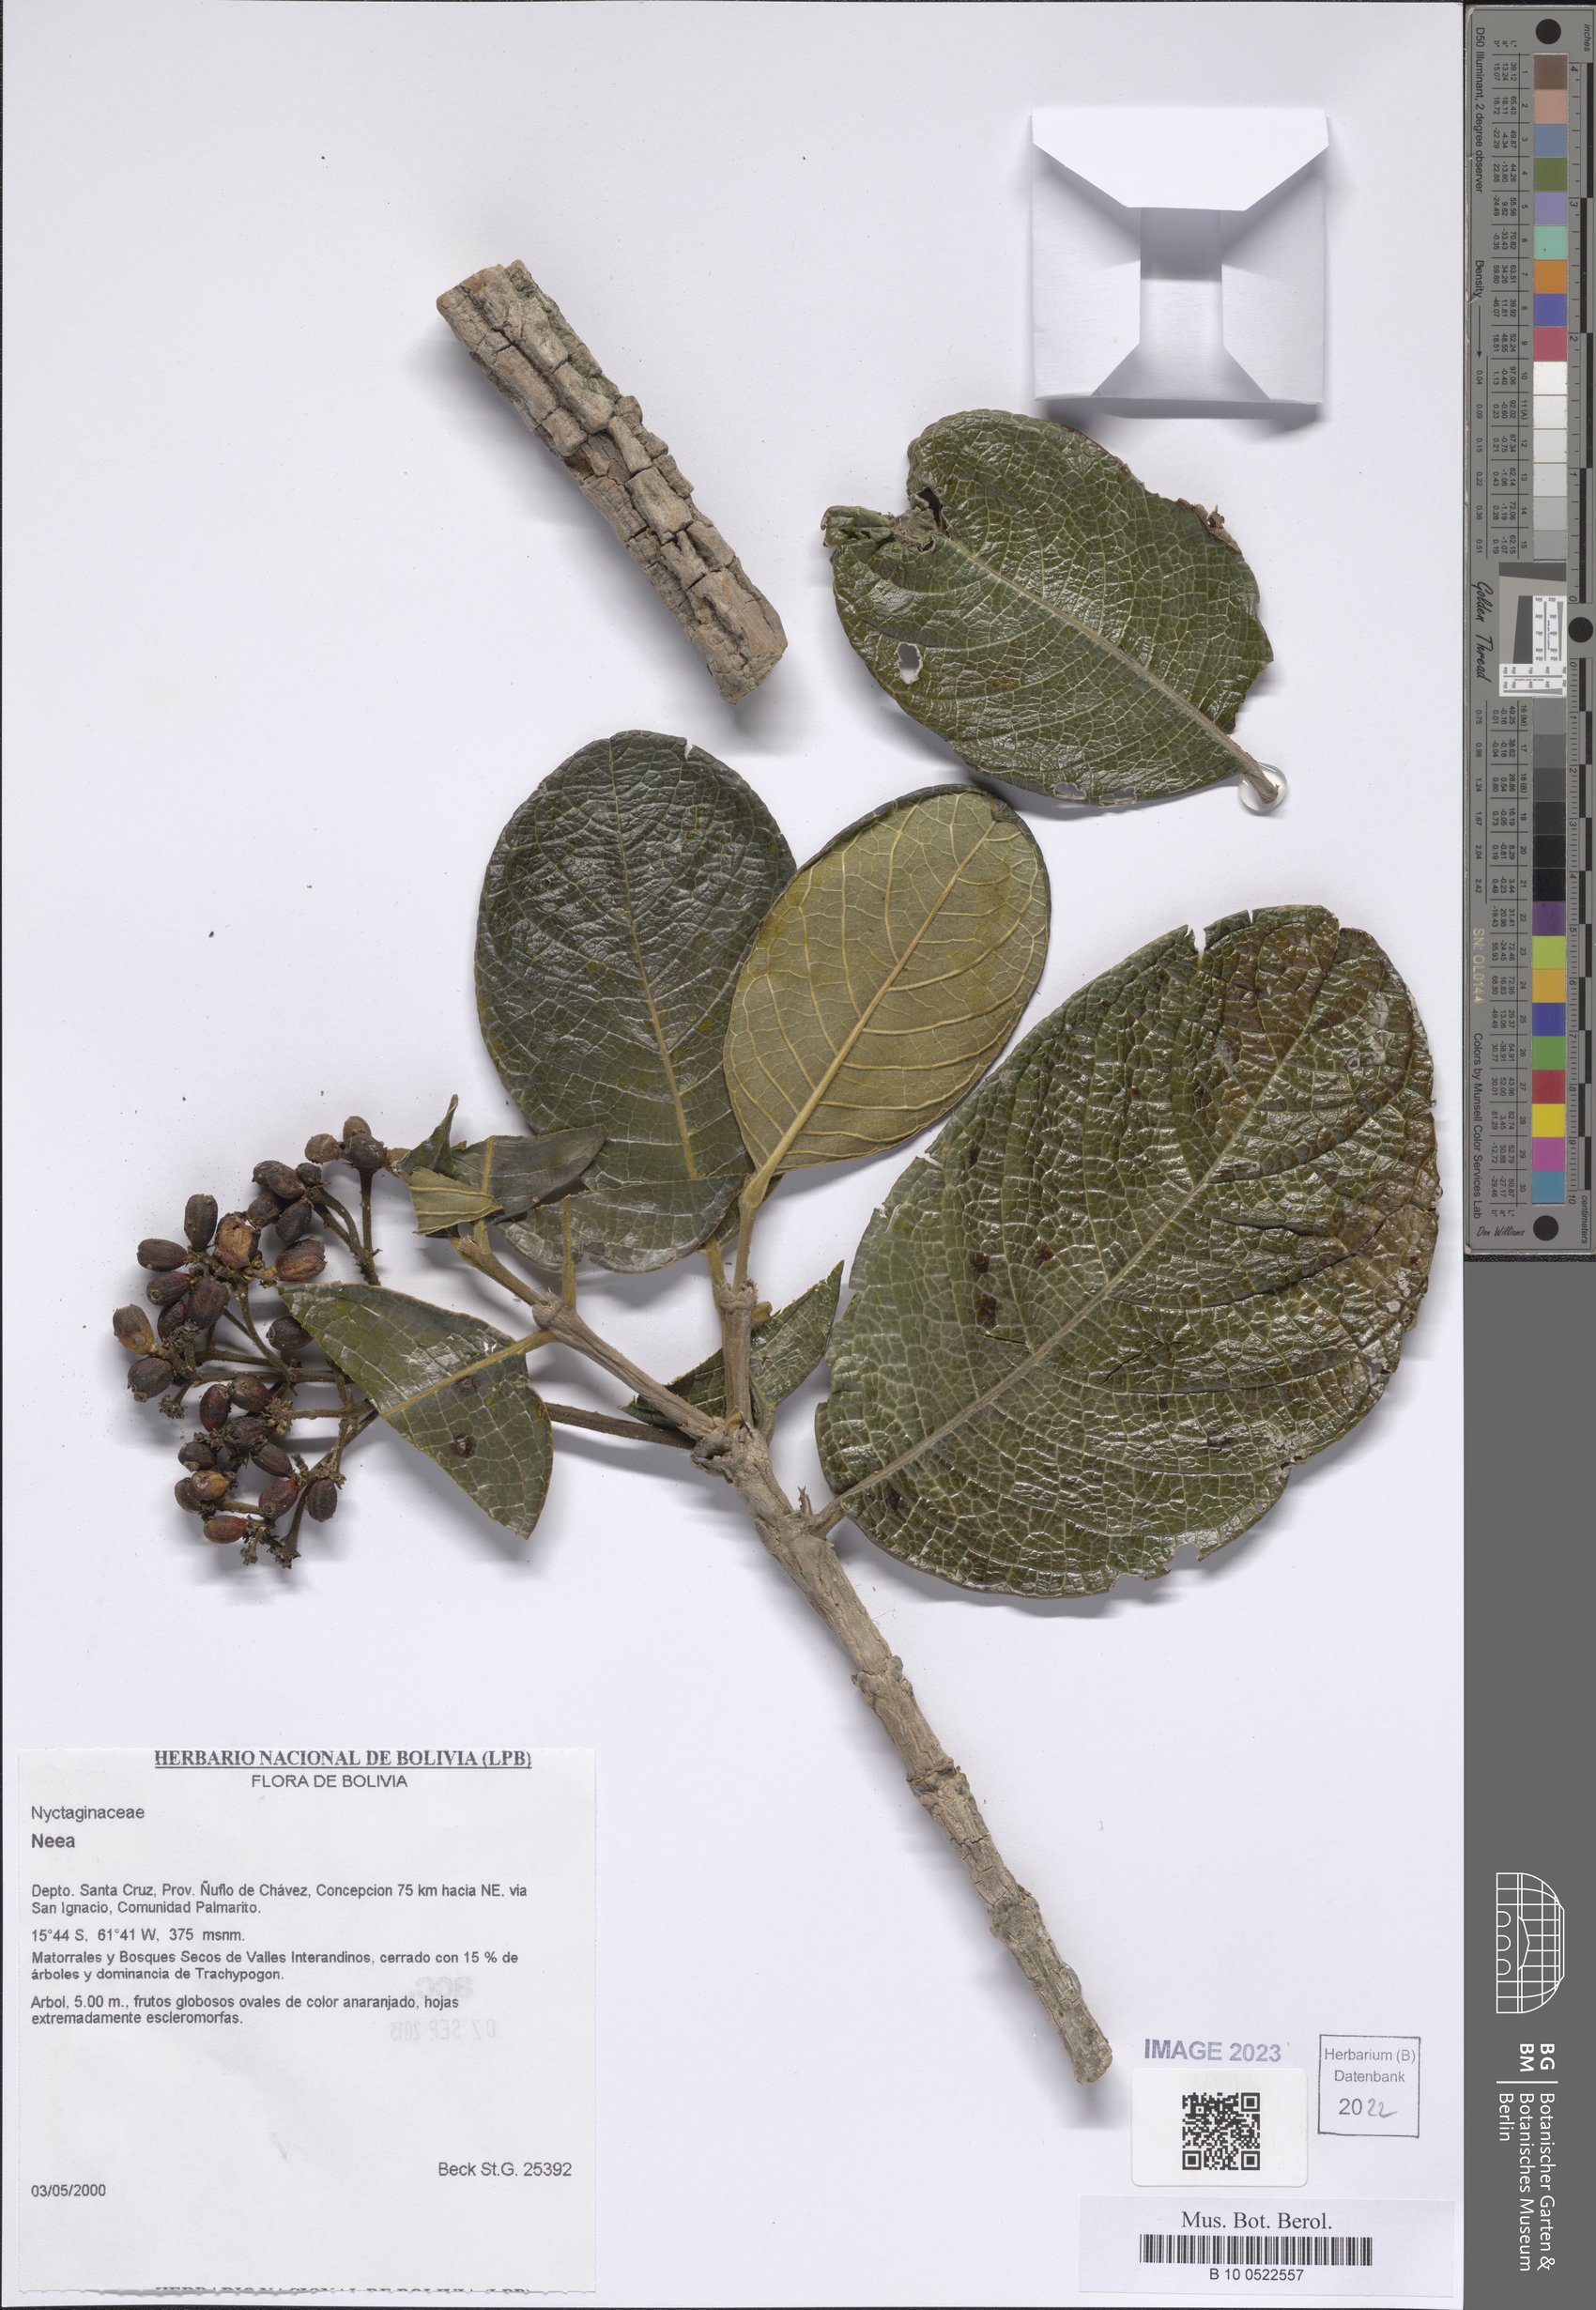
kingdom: Plantae
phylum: Tracheophyta
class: Magnoliopsida
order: Caryophyllales
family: Nyctaginaceae
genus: Neea
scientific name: Neea
